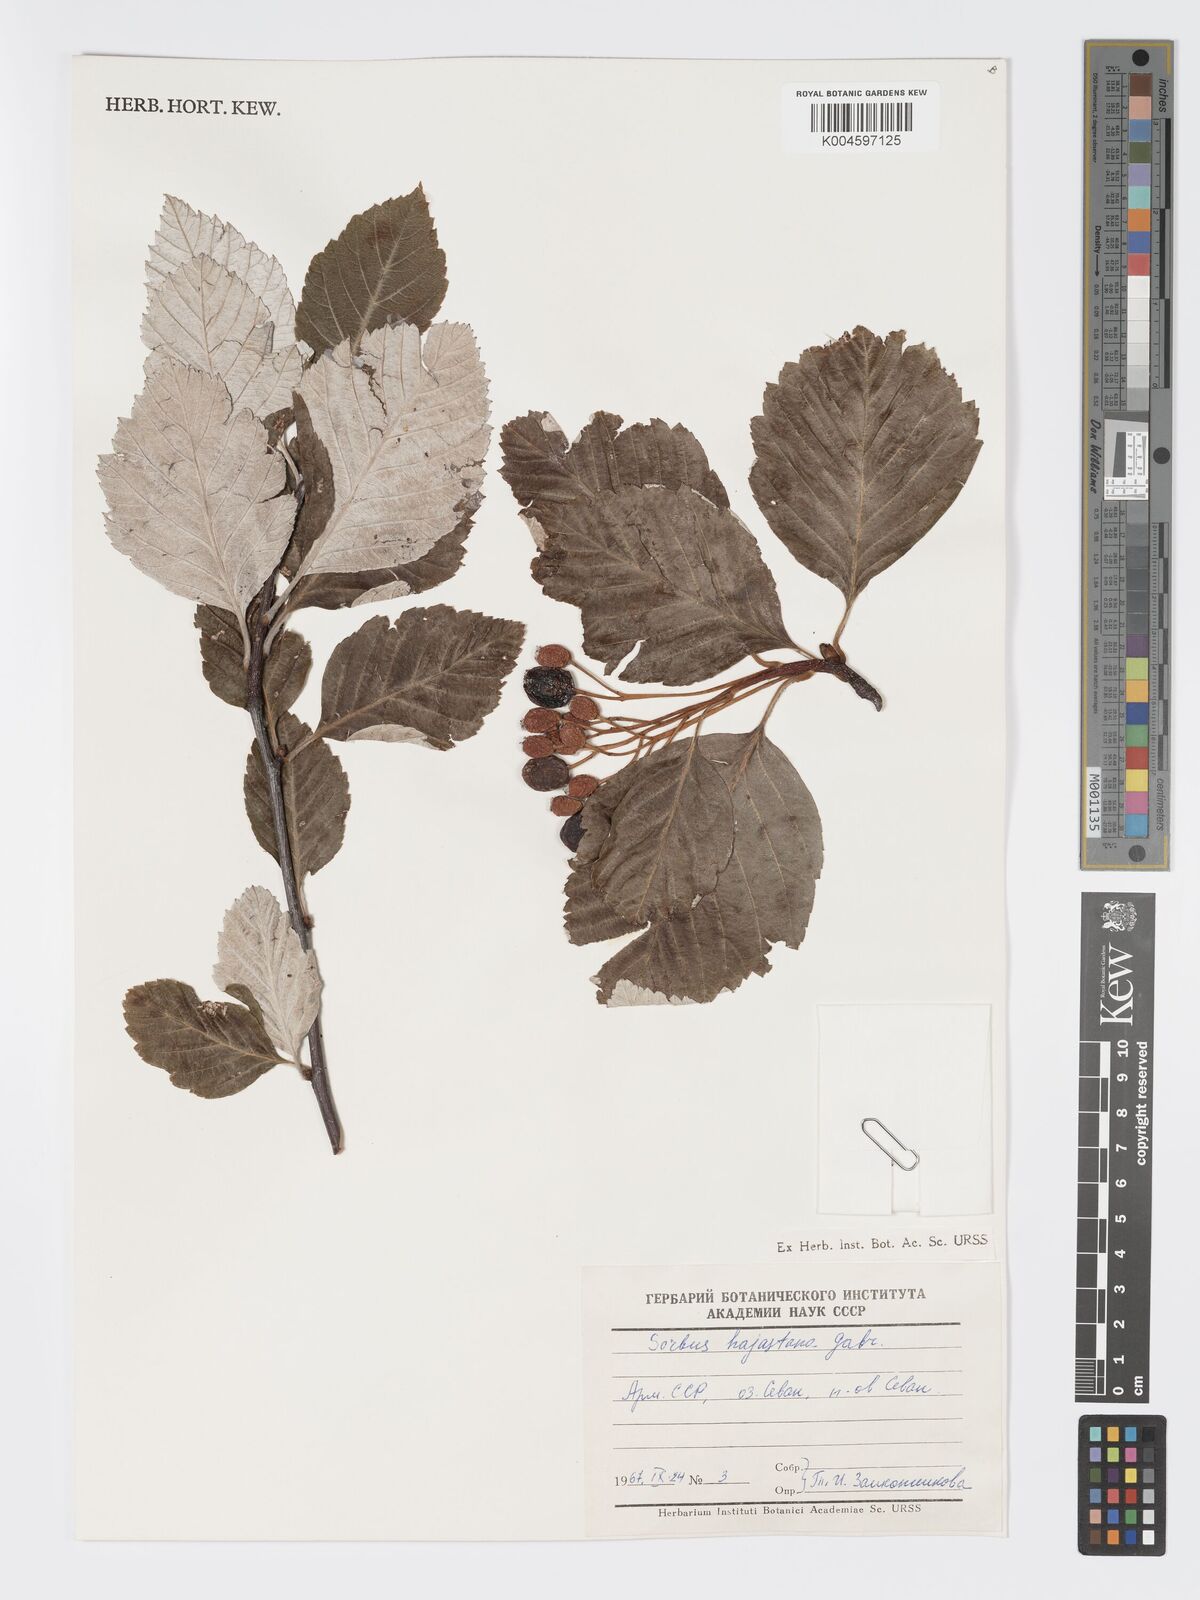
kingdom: Plantae
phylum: Tracheophyta
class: Magnoliopsida
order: Rosales
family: Rosaceae
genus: Sorbus
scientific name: Sorbus hajastana
